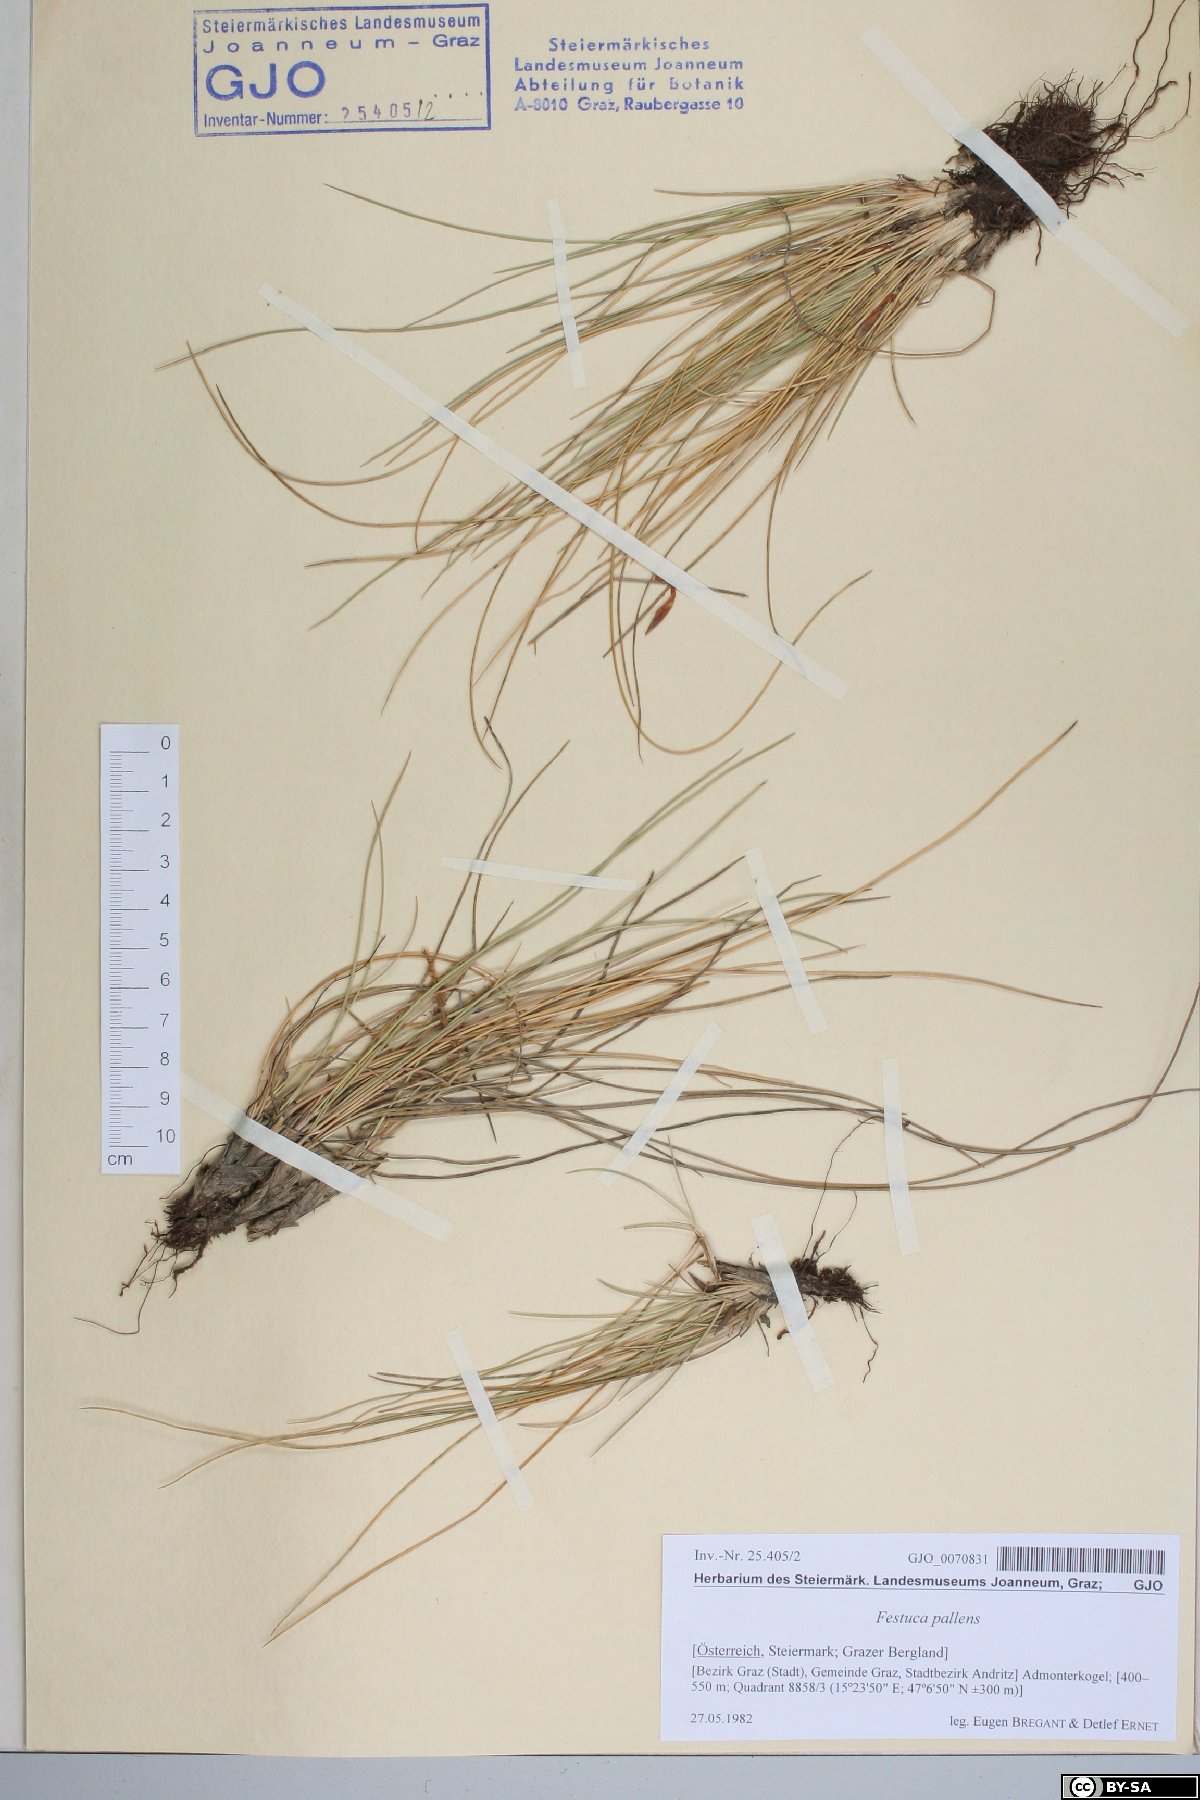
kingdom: Plantae
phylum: Tracheophyta
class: Liliopsida
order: Poales
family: Poaceae
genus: Festuca
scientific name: Festuca pallens
